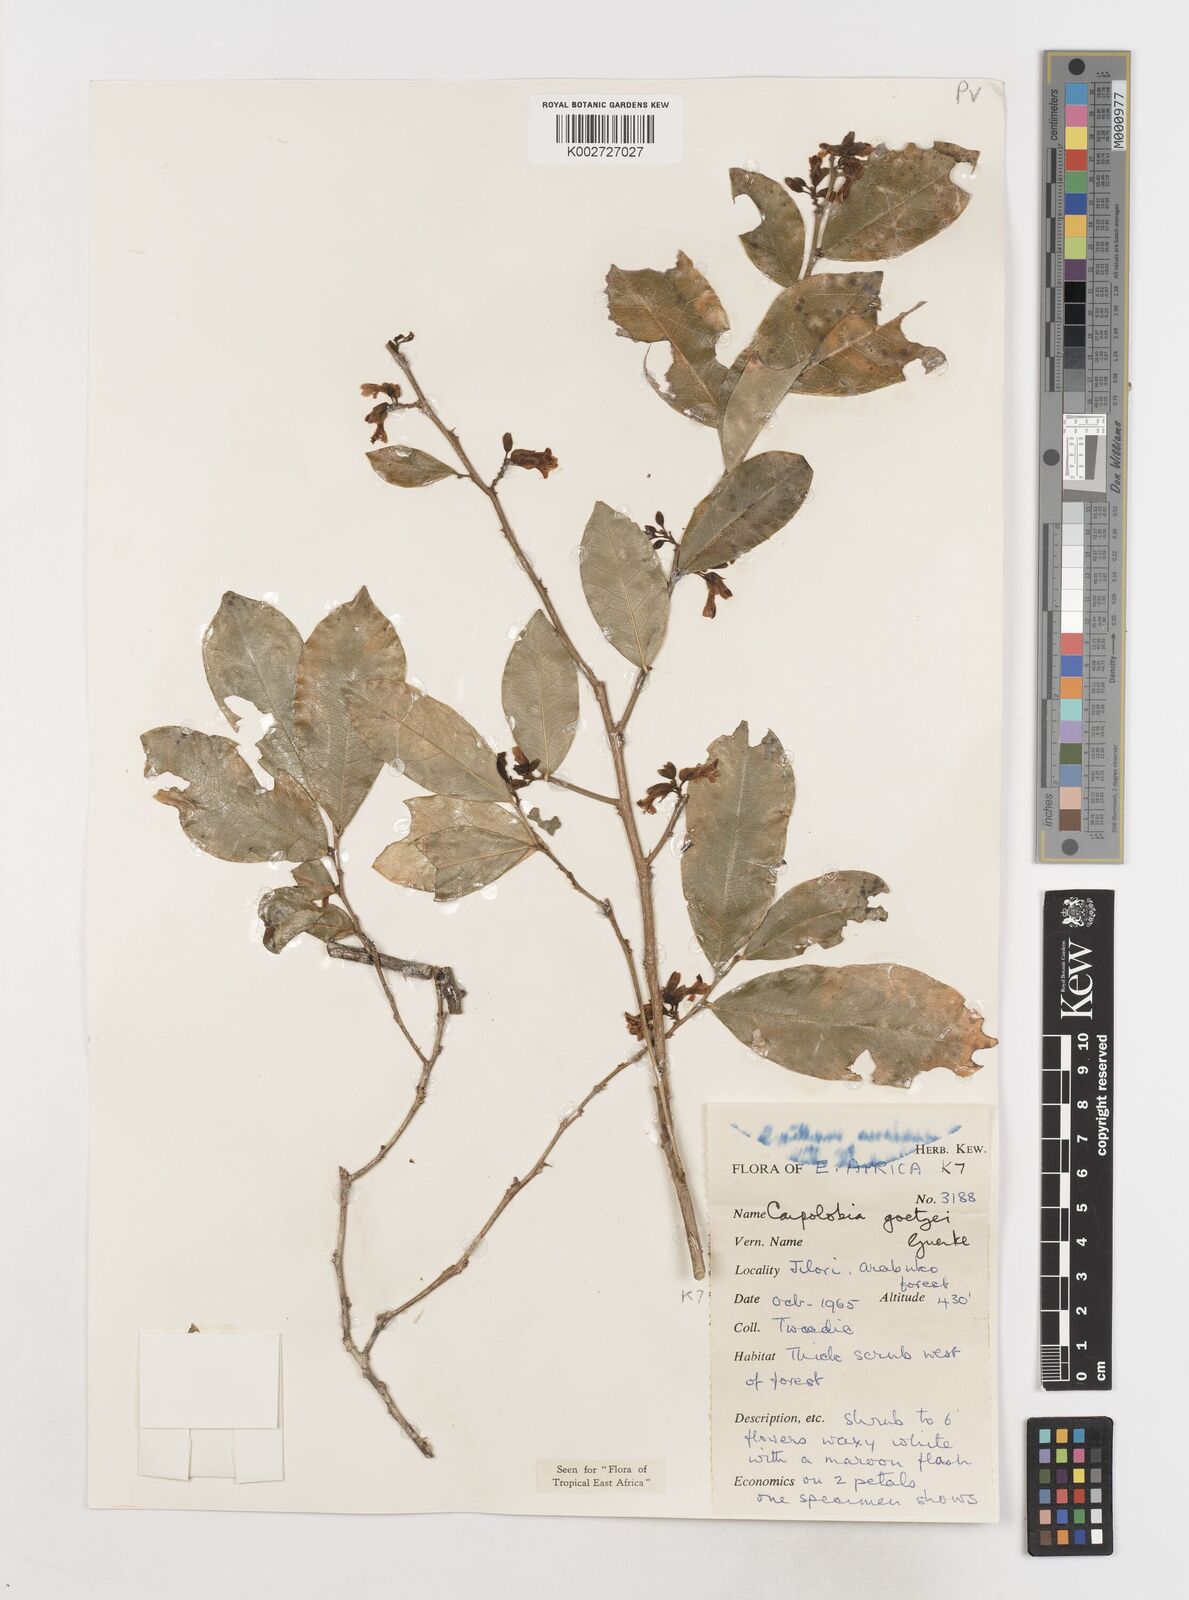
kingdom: Plantae
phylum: Tracheophyta
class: Magnoliopsida
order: Fabales
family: Polygalaceae
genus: Carpolobia
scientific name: Carpolobia goetzei
